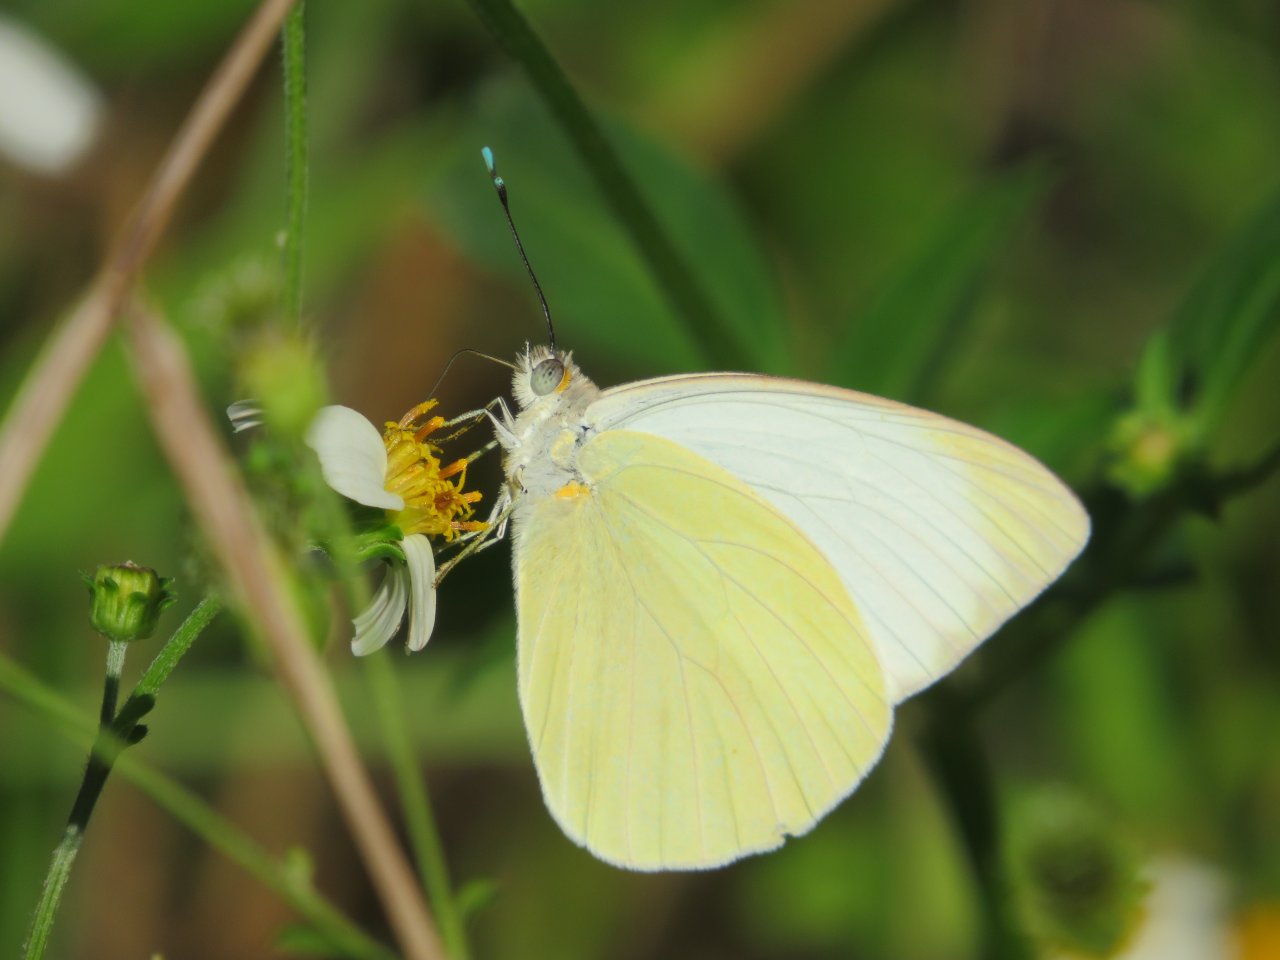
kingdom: Animalia
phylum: Arthropoda
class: Insecta
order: Lepidoptera
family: Pieridae
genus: Ascia
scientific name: Ascia monuste
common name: Great Southern White
